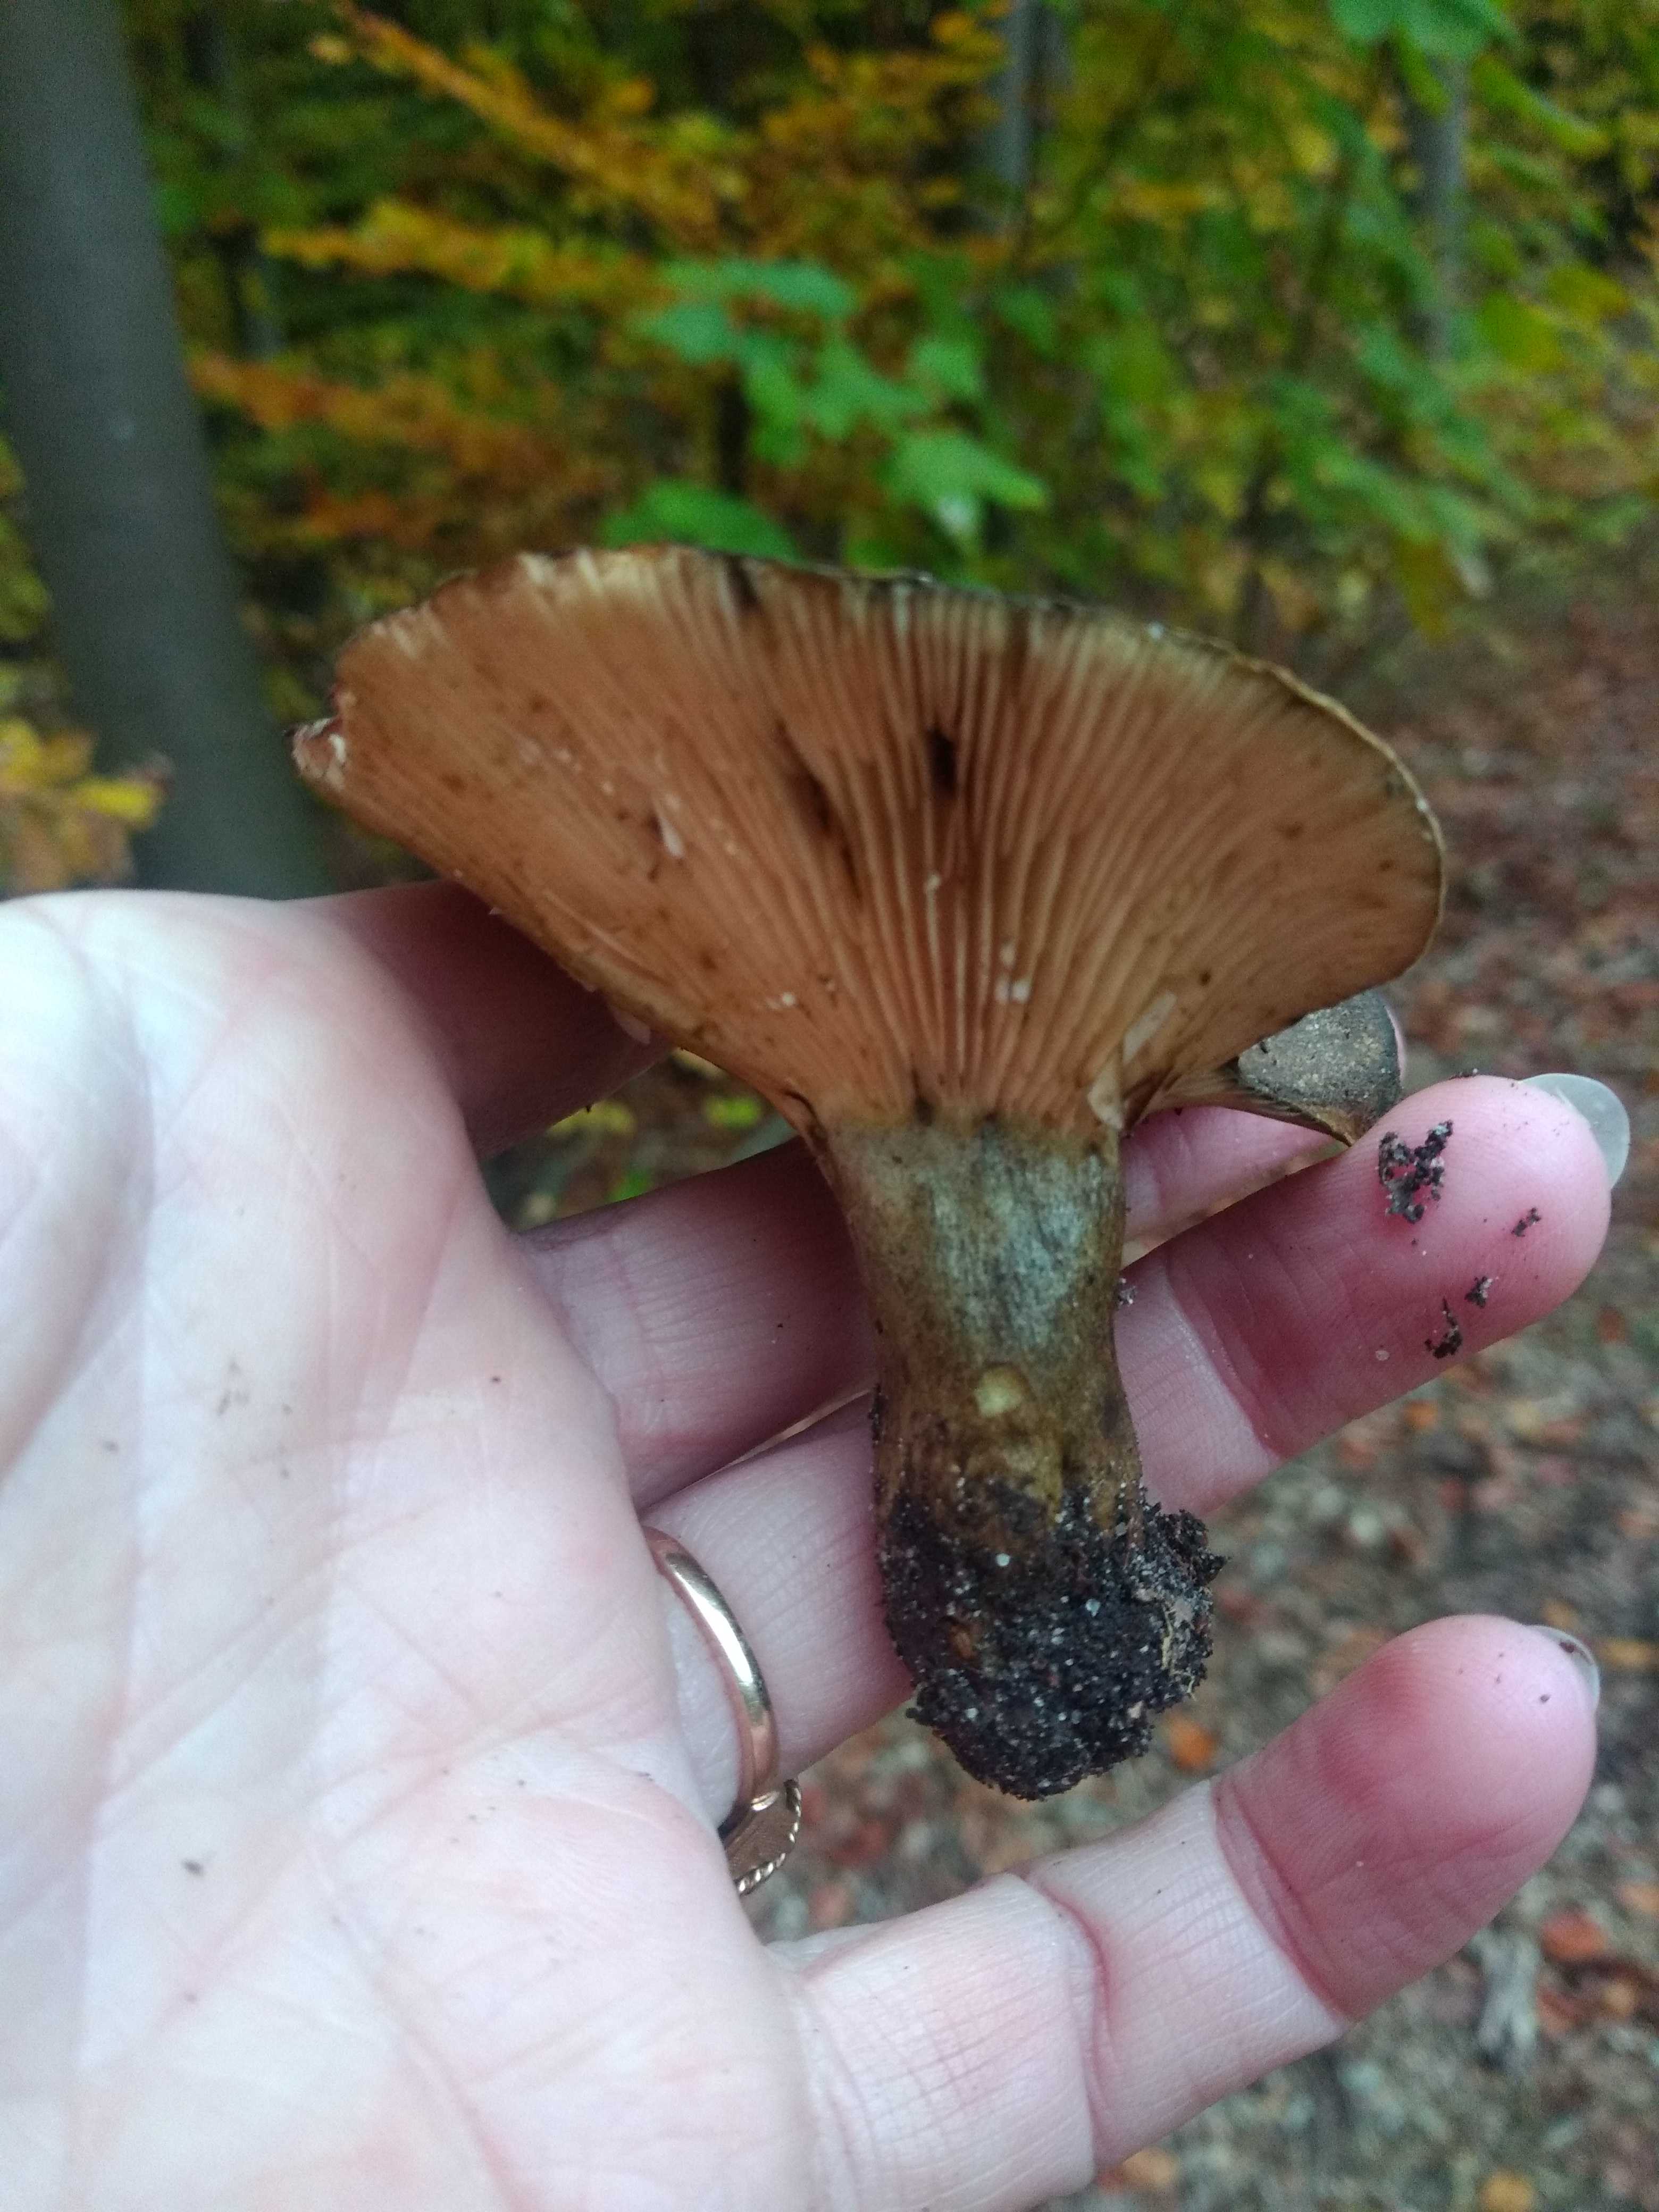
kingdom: Fungi
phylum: Basidiomycota
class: Agaricomycetes
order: Russulales
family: Russulaceae
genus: Lactarius
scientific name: Lactarius necator
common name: manddraber-mælkehat
